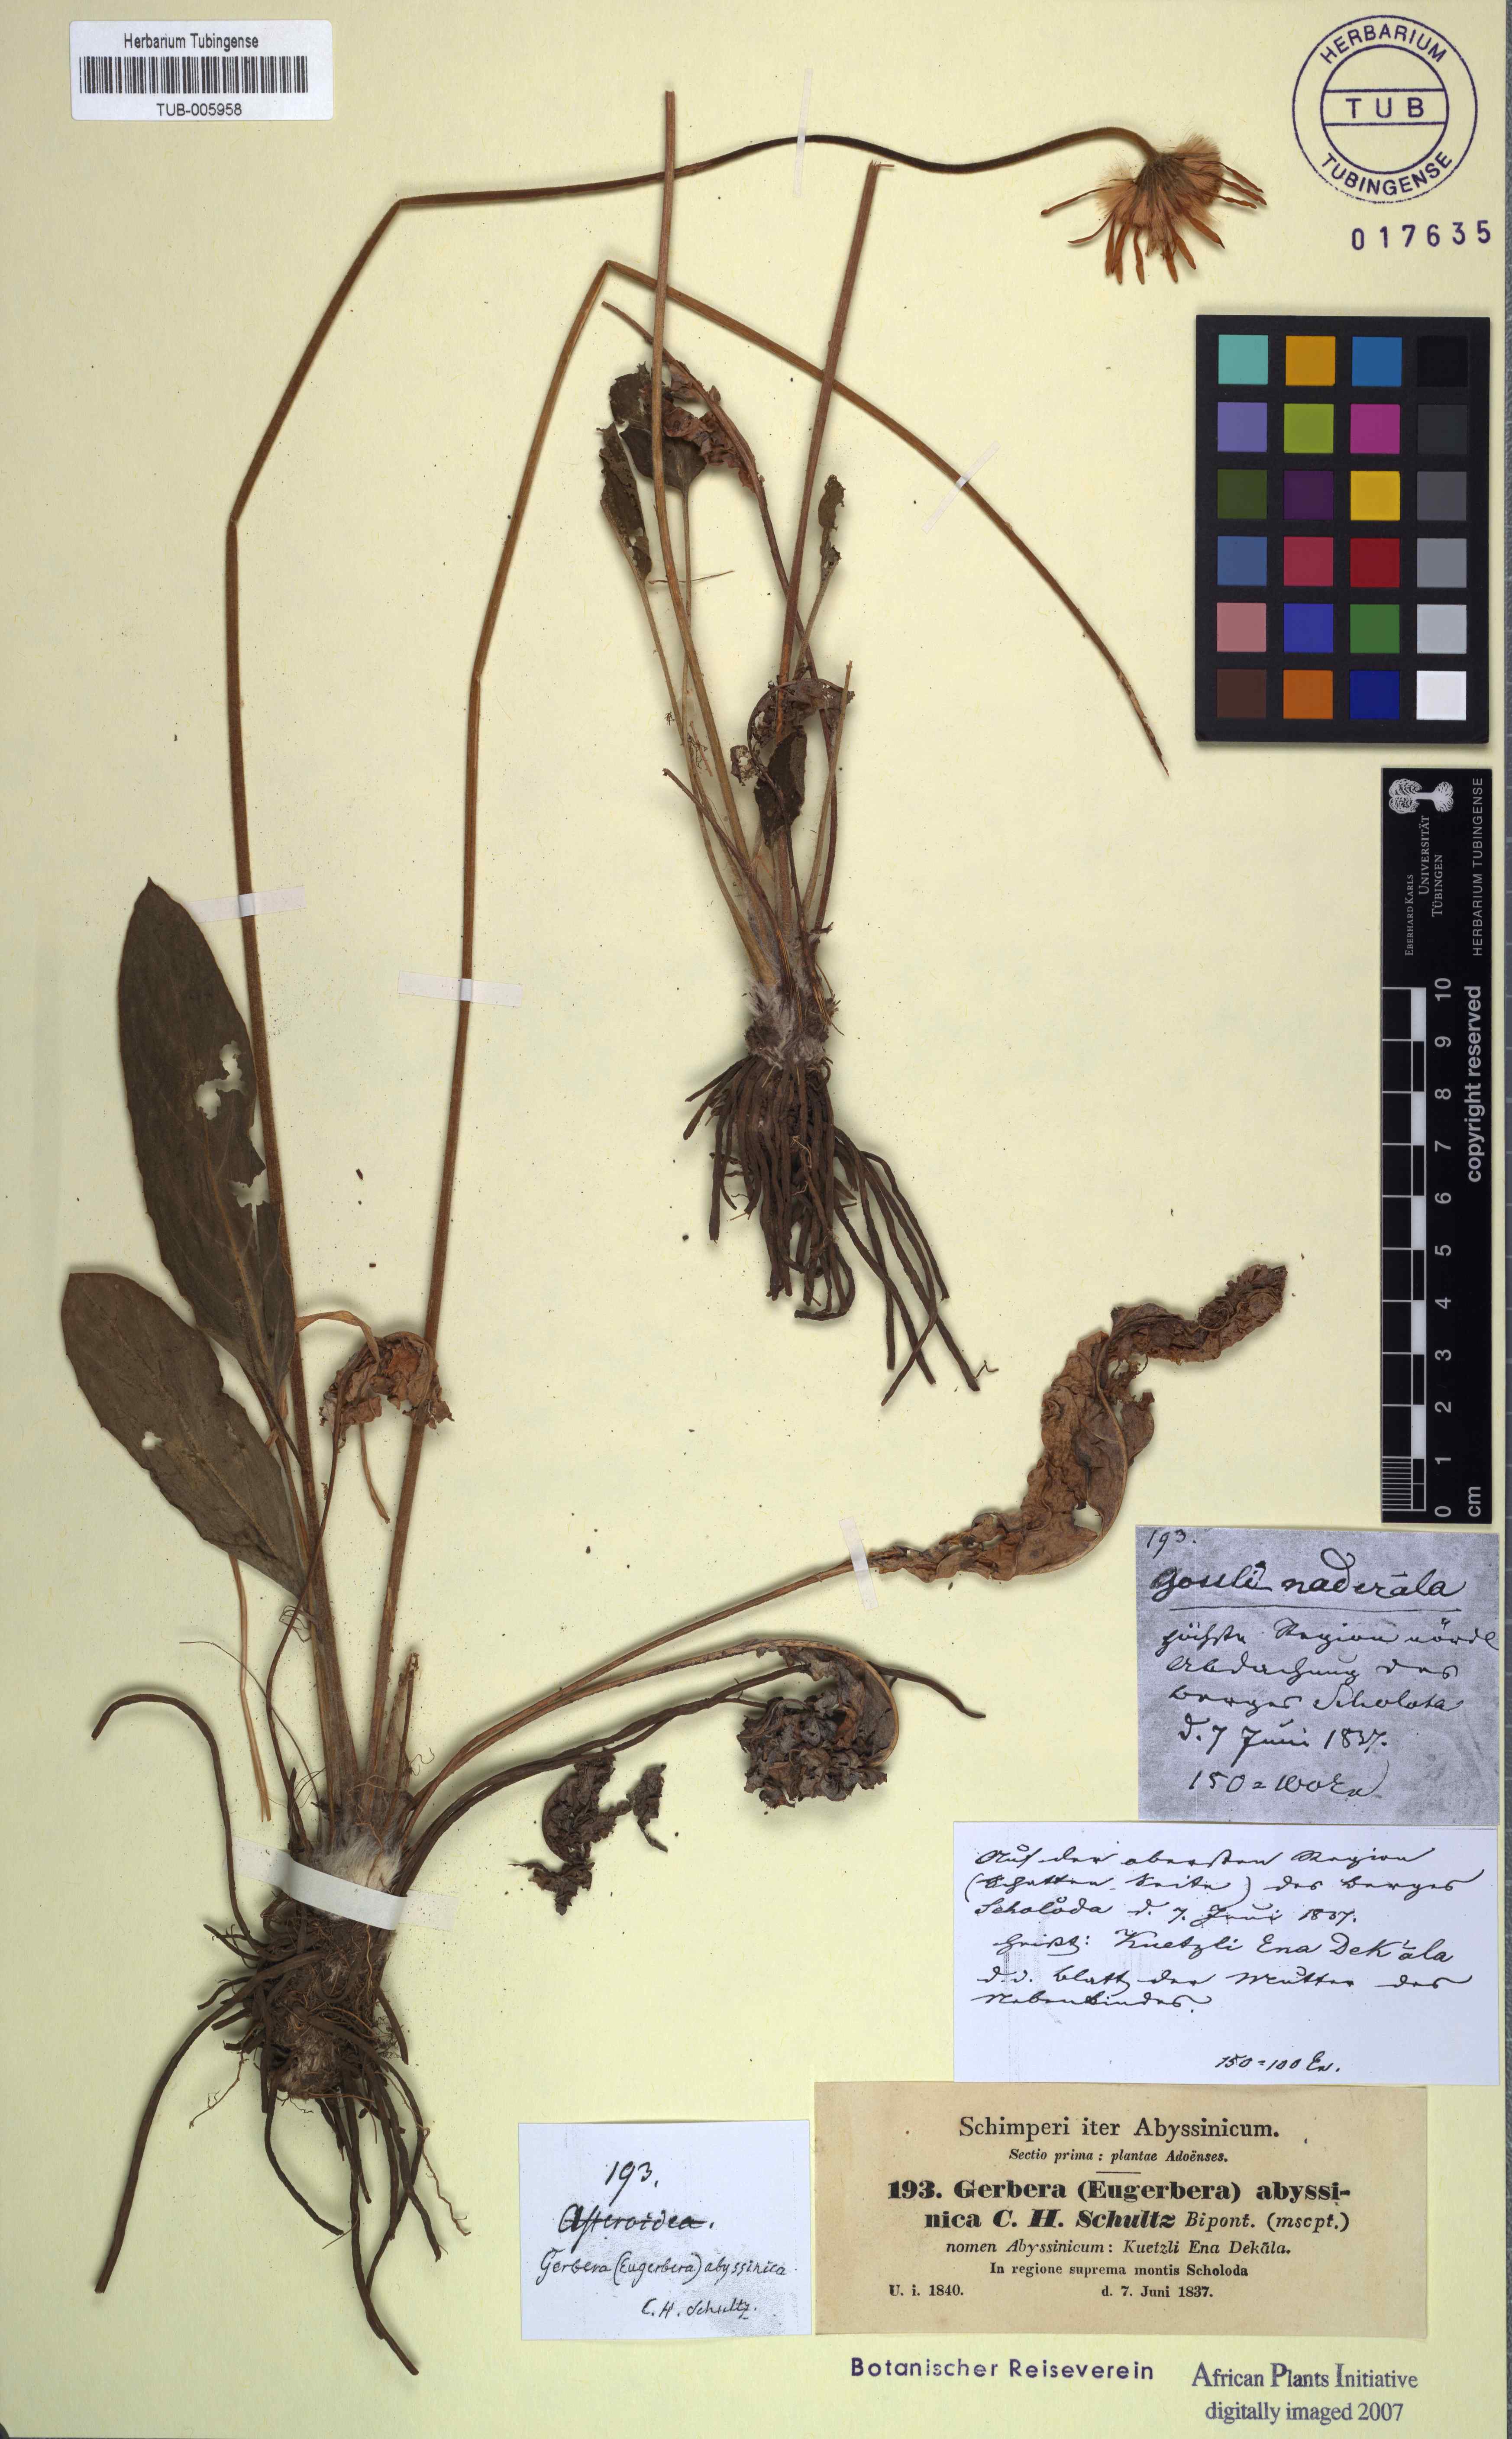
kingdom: Plantae
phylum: Tracheophyta
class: Magnoliopsida
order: Asterales
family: Asteraceae
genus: Gerbera
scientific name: Gerbera viridifolia
